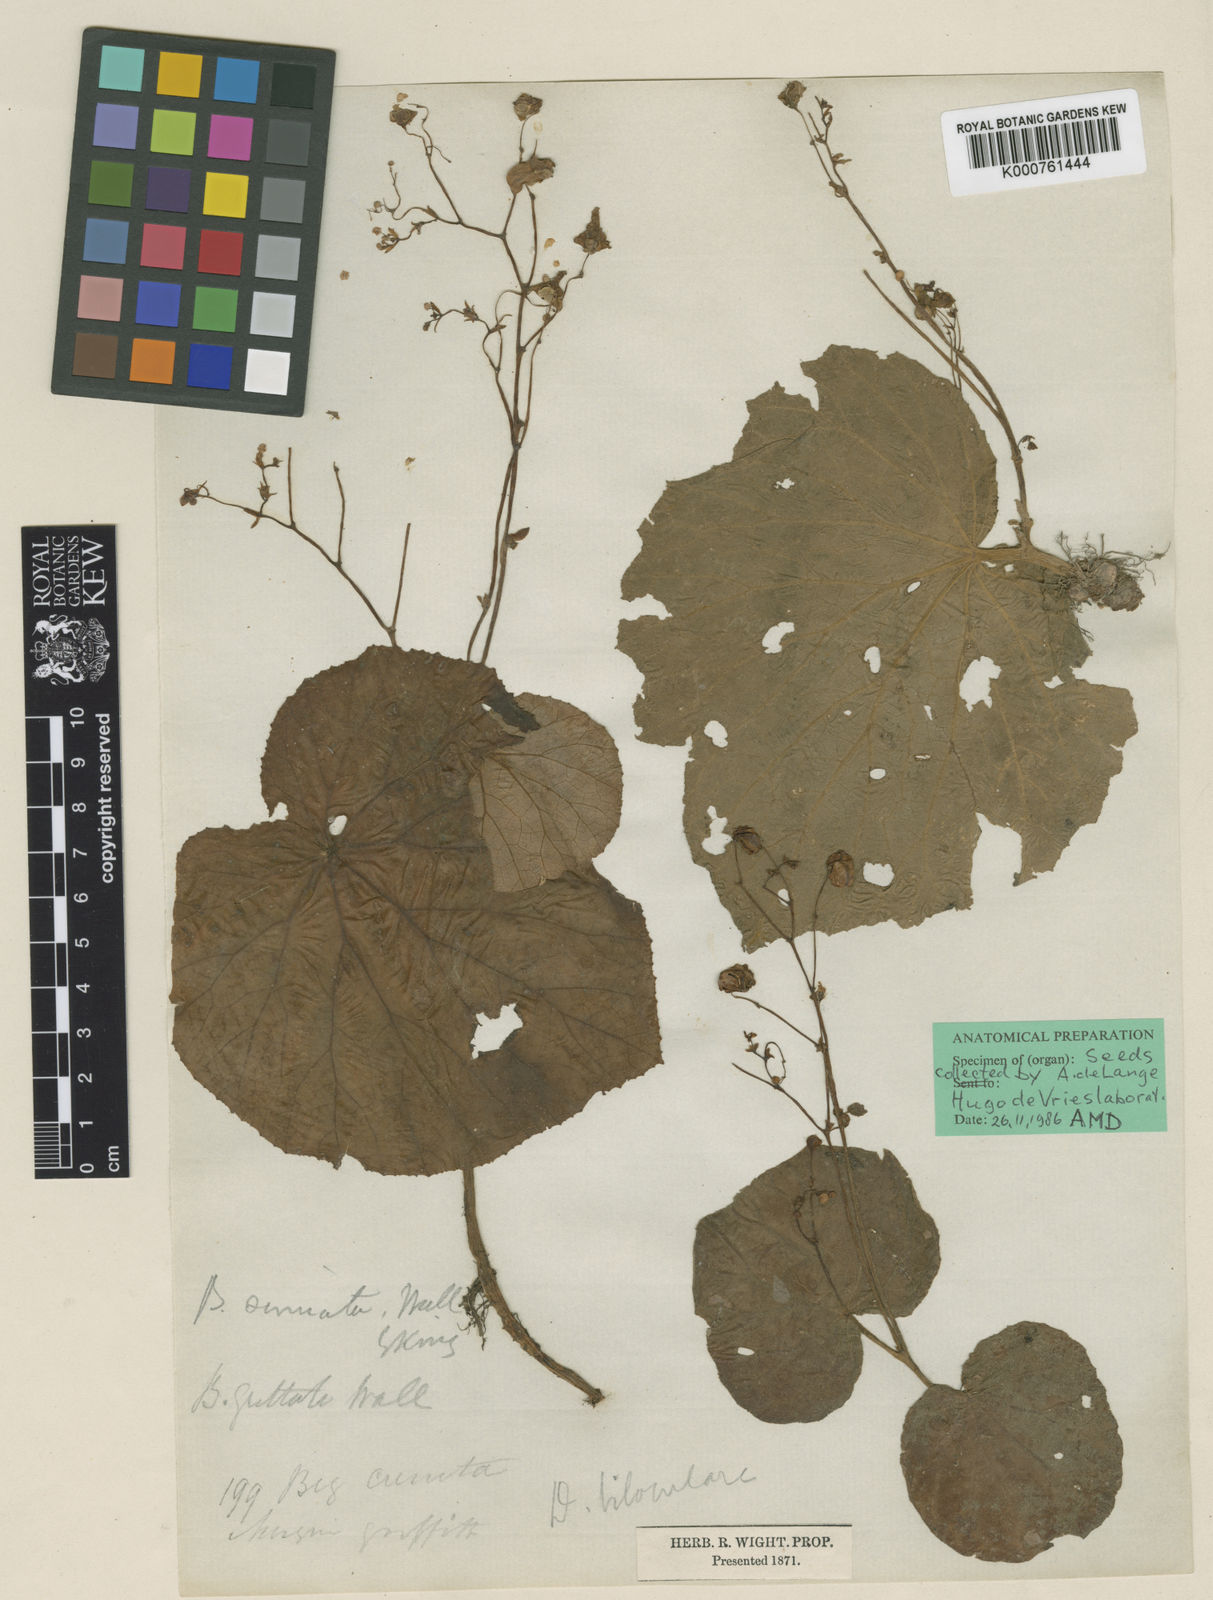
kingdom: Plantae
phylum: Tracheophyta
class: Magnoliopsida
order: Cucurbitales
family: Begoniaceae
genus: Begonia
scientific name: Begonia
